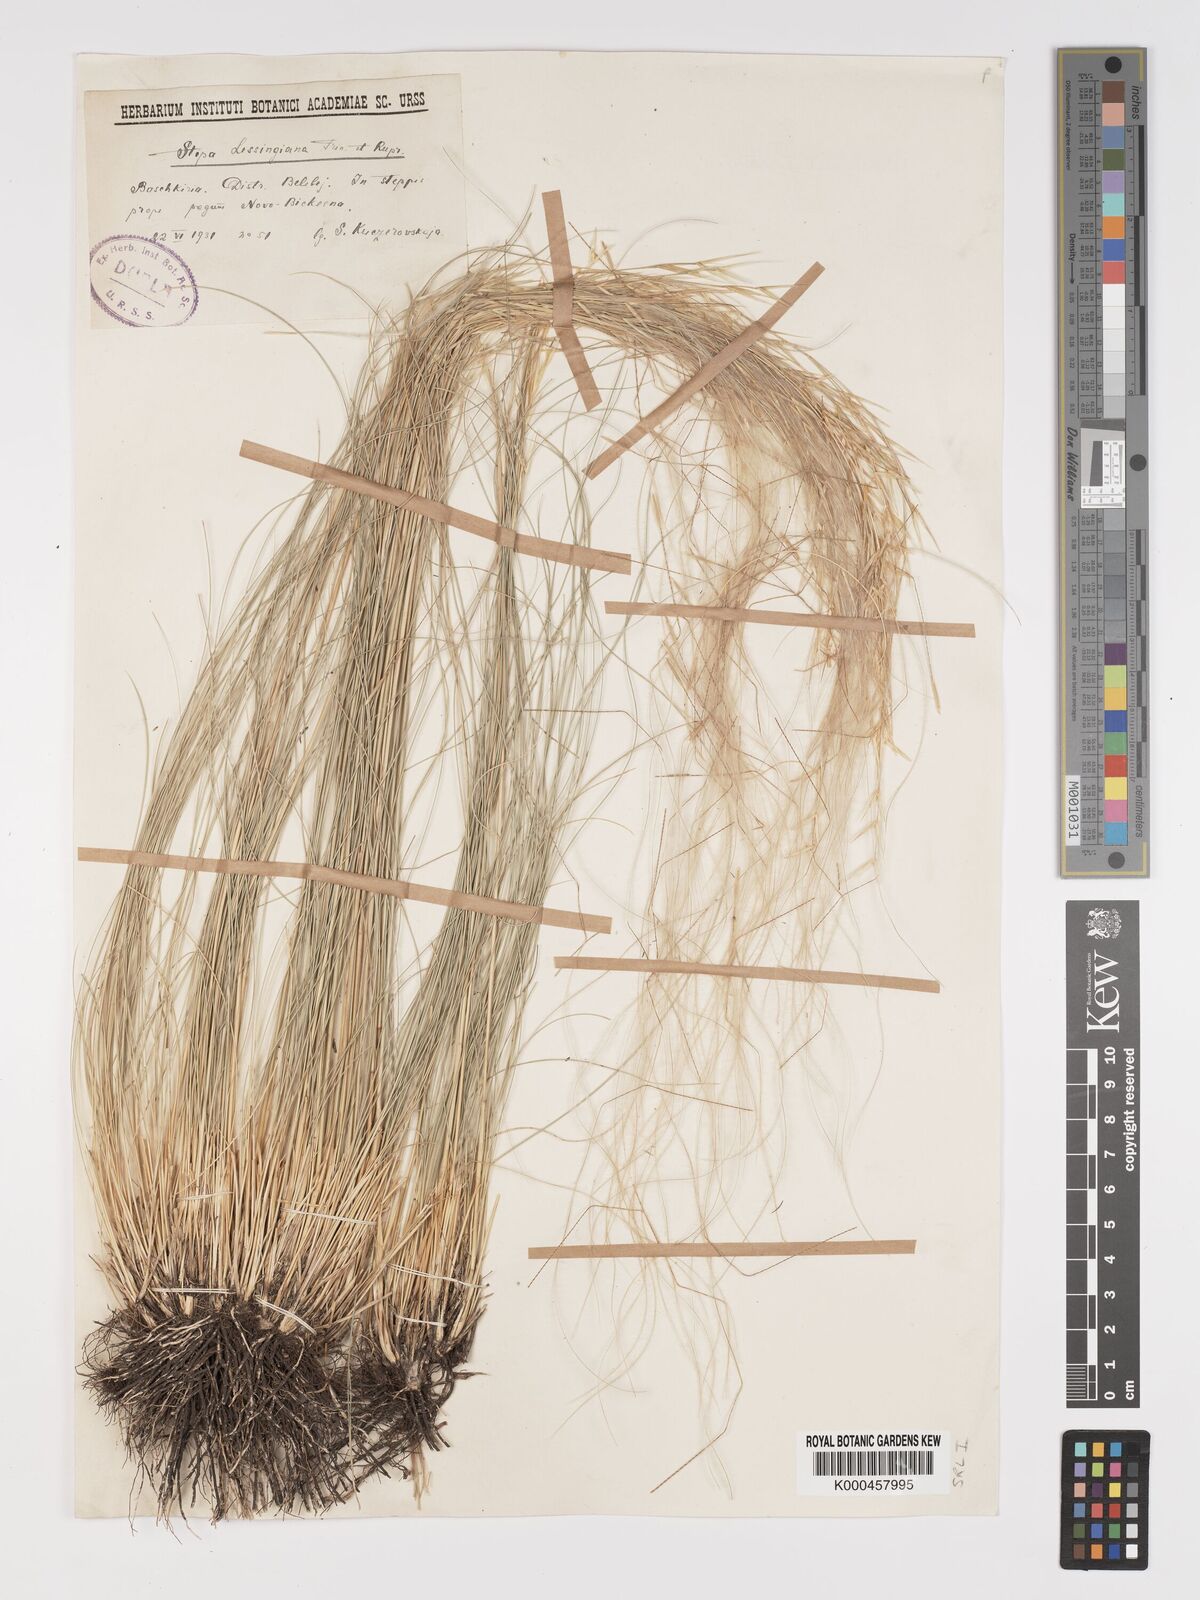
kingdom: Plantae
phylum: Tracheophyta
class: Liliopsida
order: Poales
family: Poaceae
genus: Stipa
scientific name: Stipa lessingiana
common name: Needle grass
